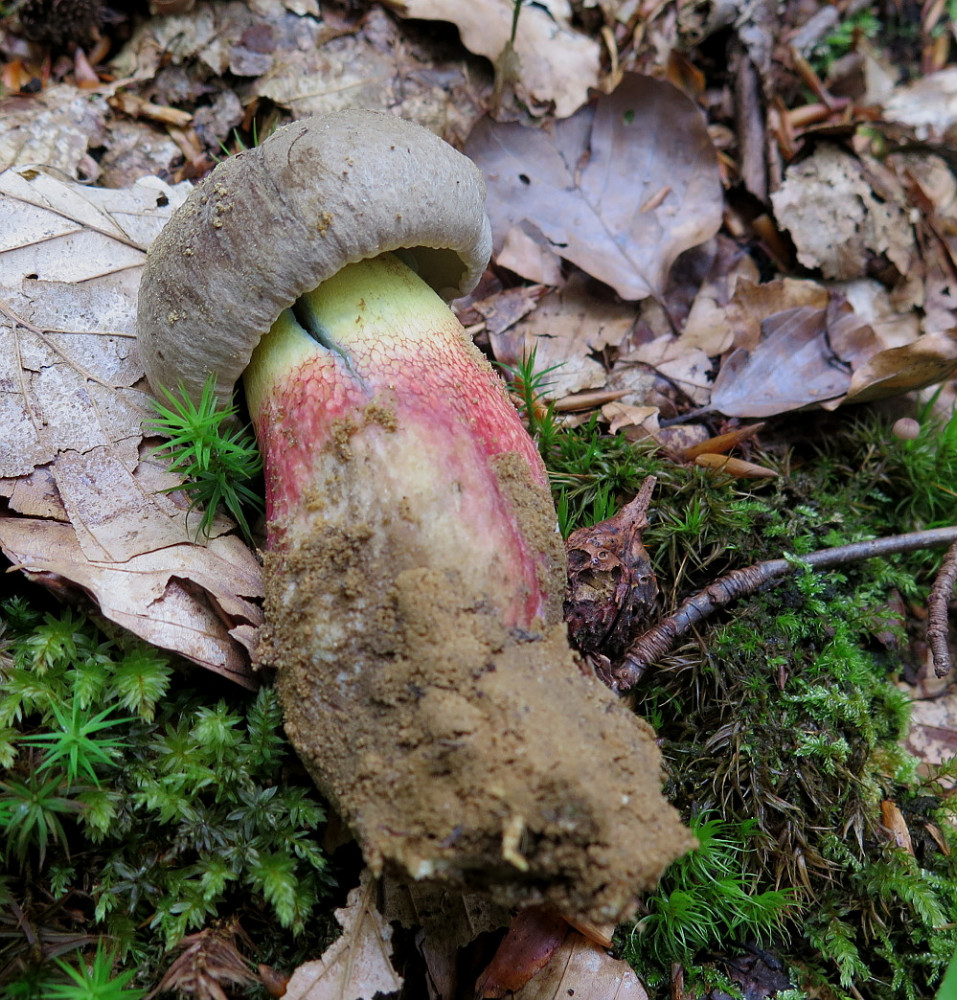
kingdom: Fungi
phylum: Basidiomycota
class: Agaricomycetes
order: Boletales
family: Boletaceae
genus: Caloboletus
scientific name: Caloboletus calopus
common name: skønfodet rørhat
